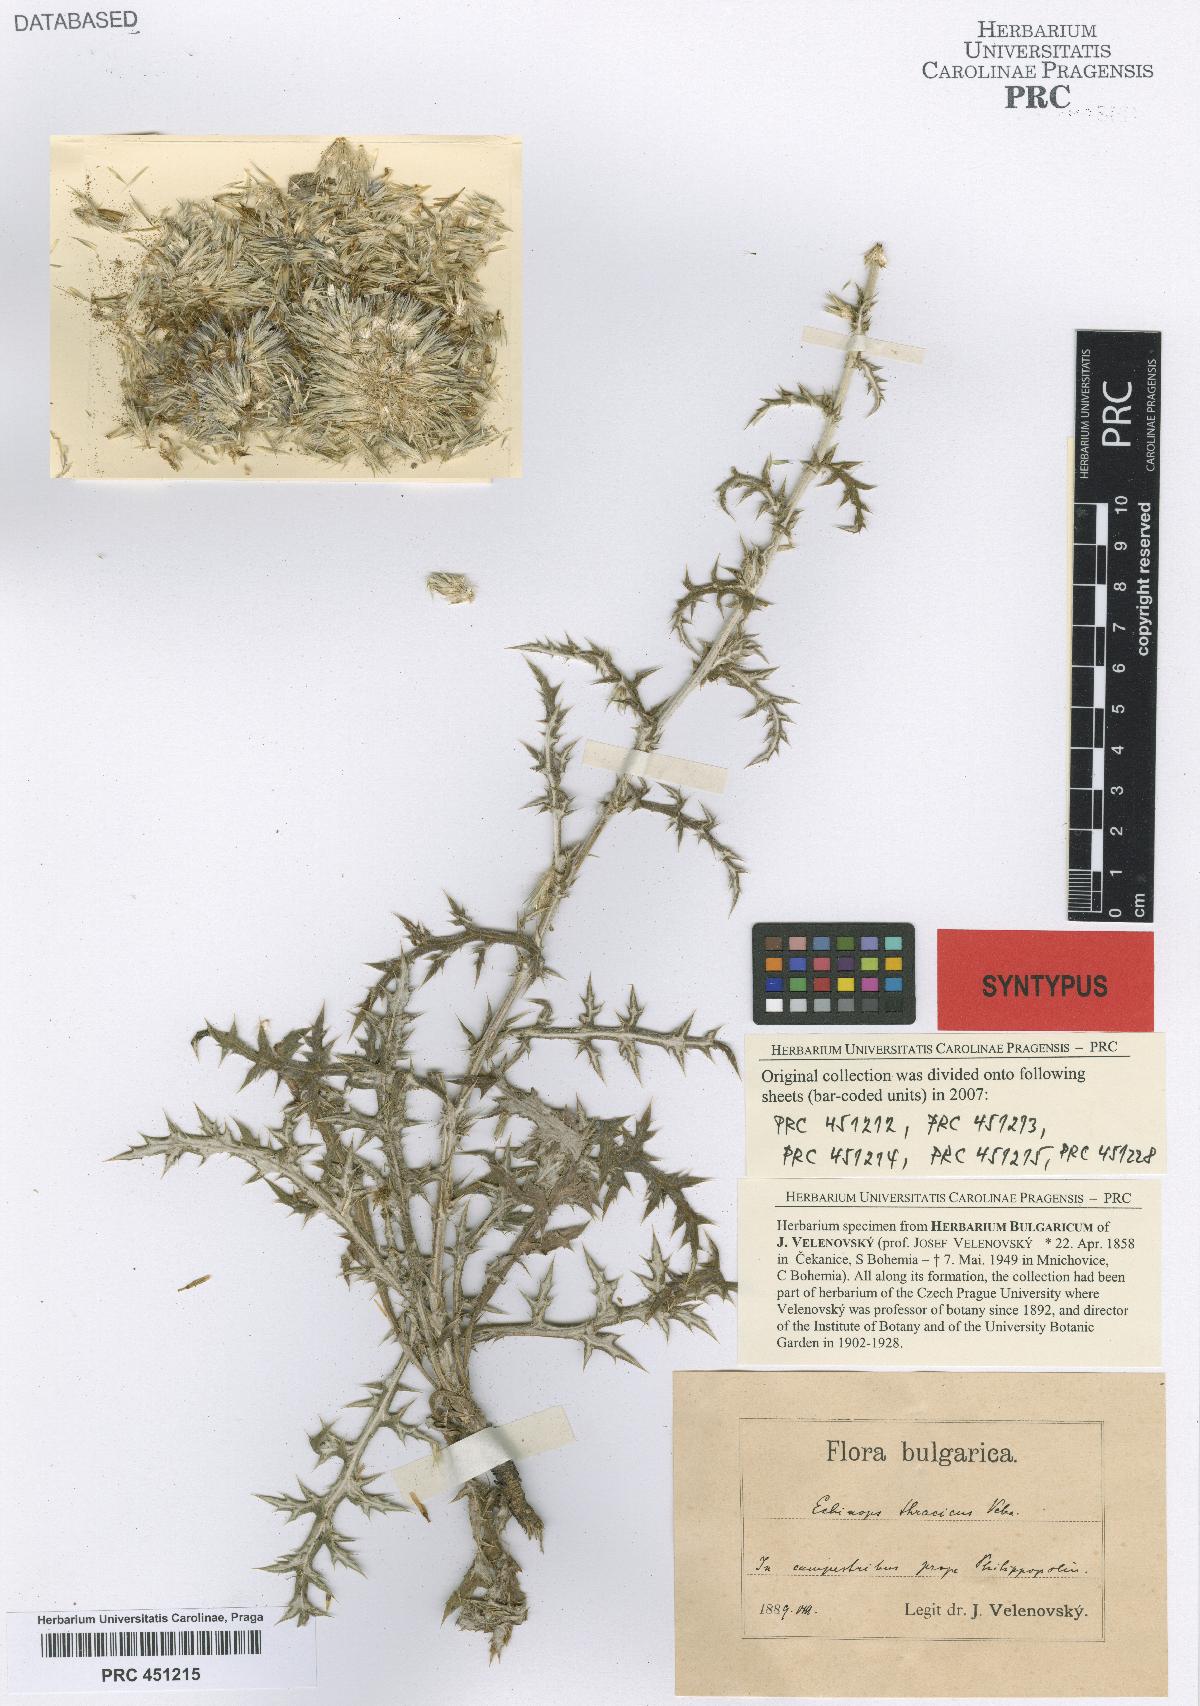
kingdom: Plantae
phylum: Tracheophyta
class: Magnoliopsida
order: Asterales
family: Asteraceae
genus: Echinops
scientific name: Echinops ritro
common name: Globe thistle
